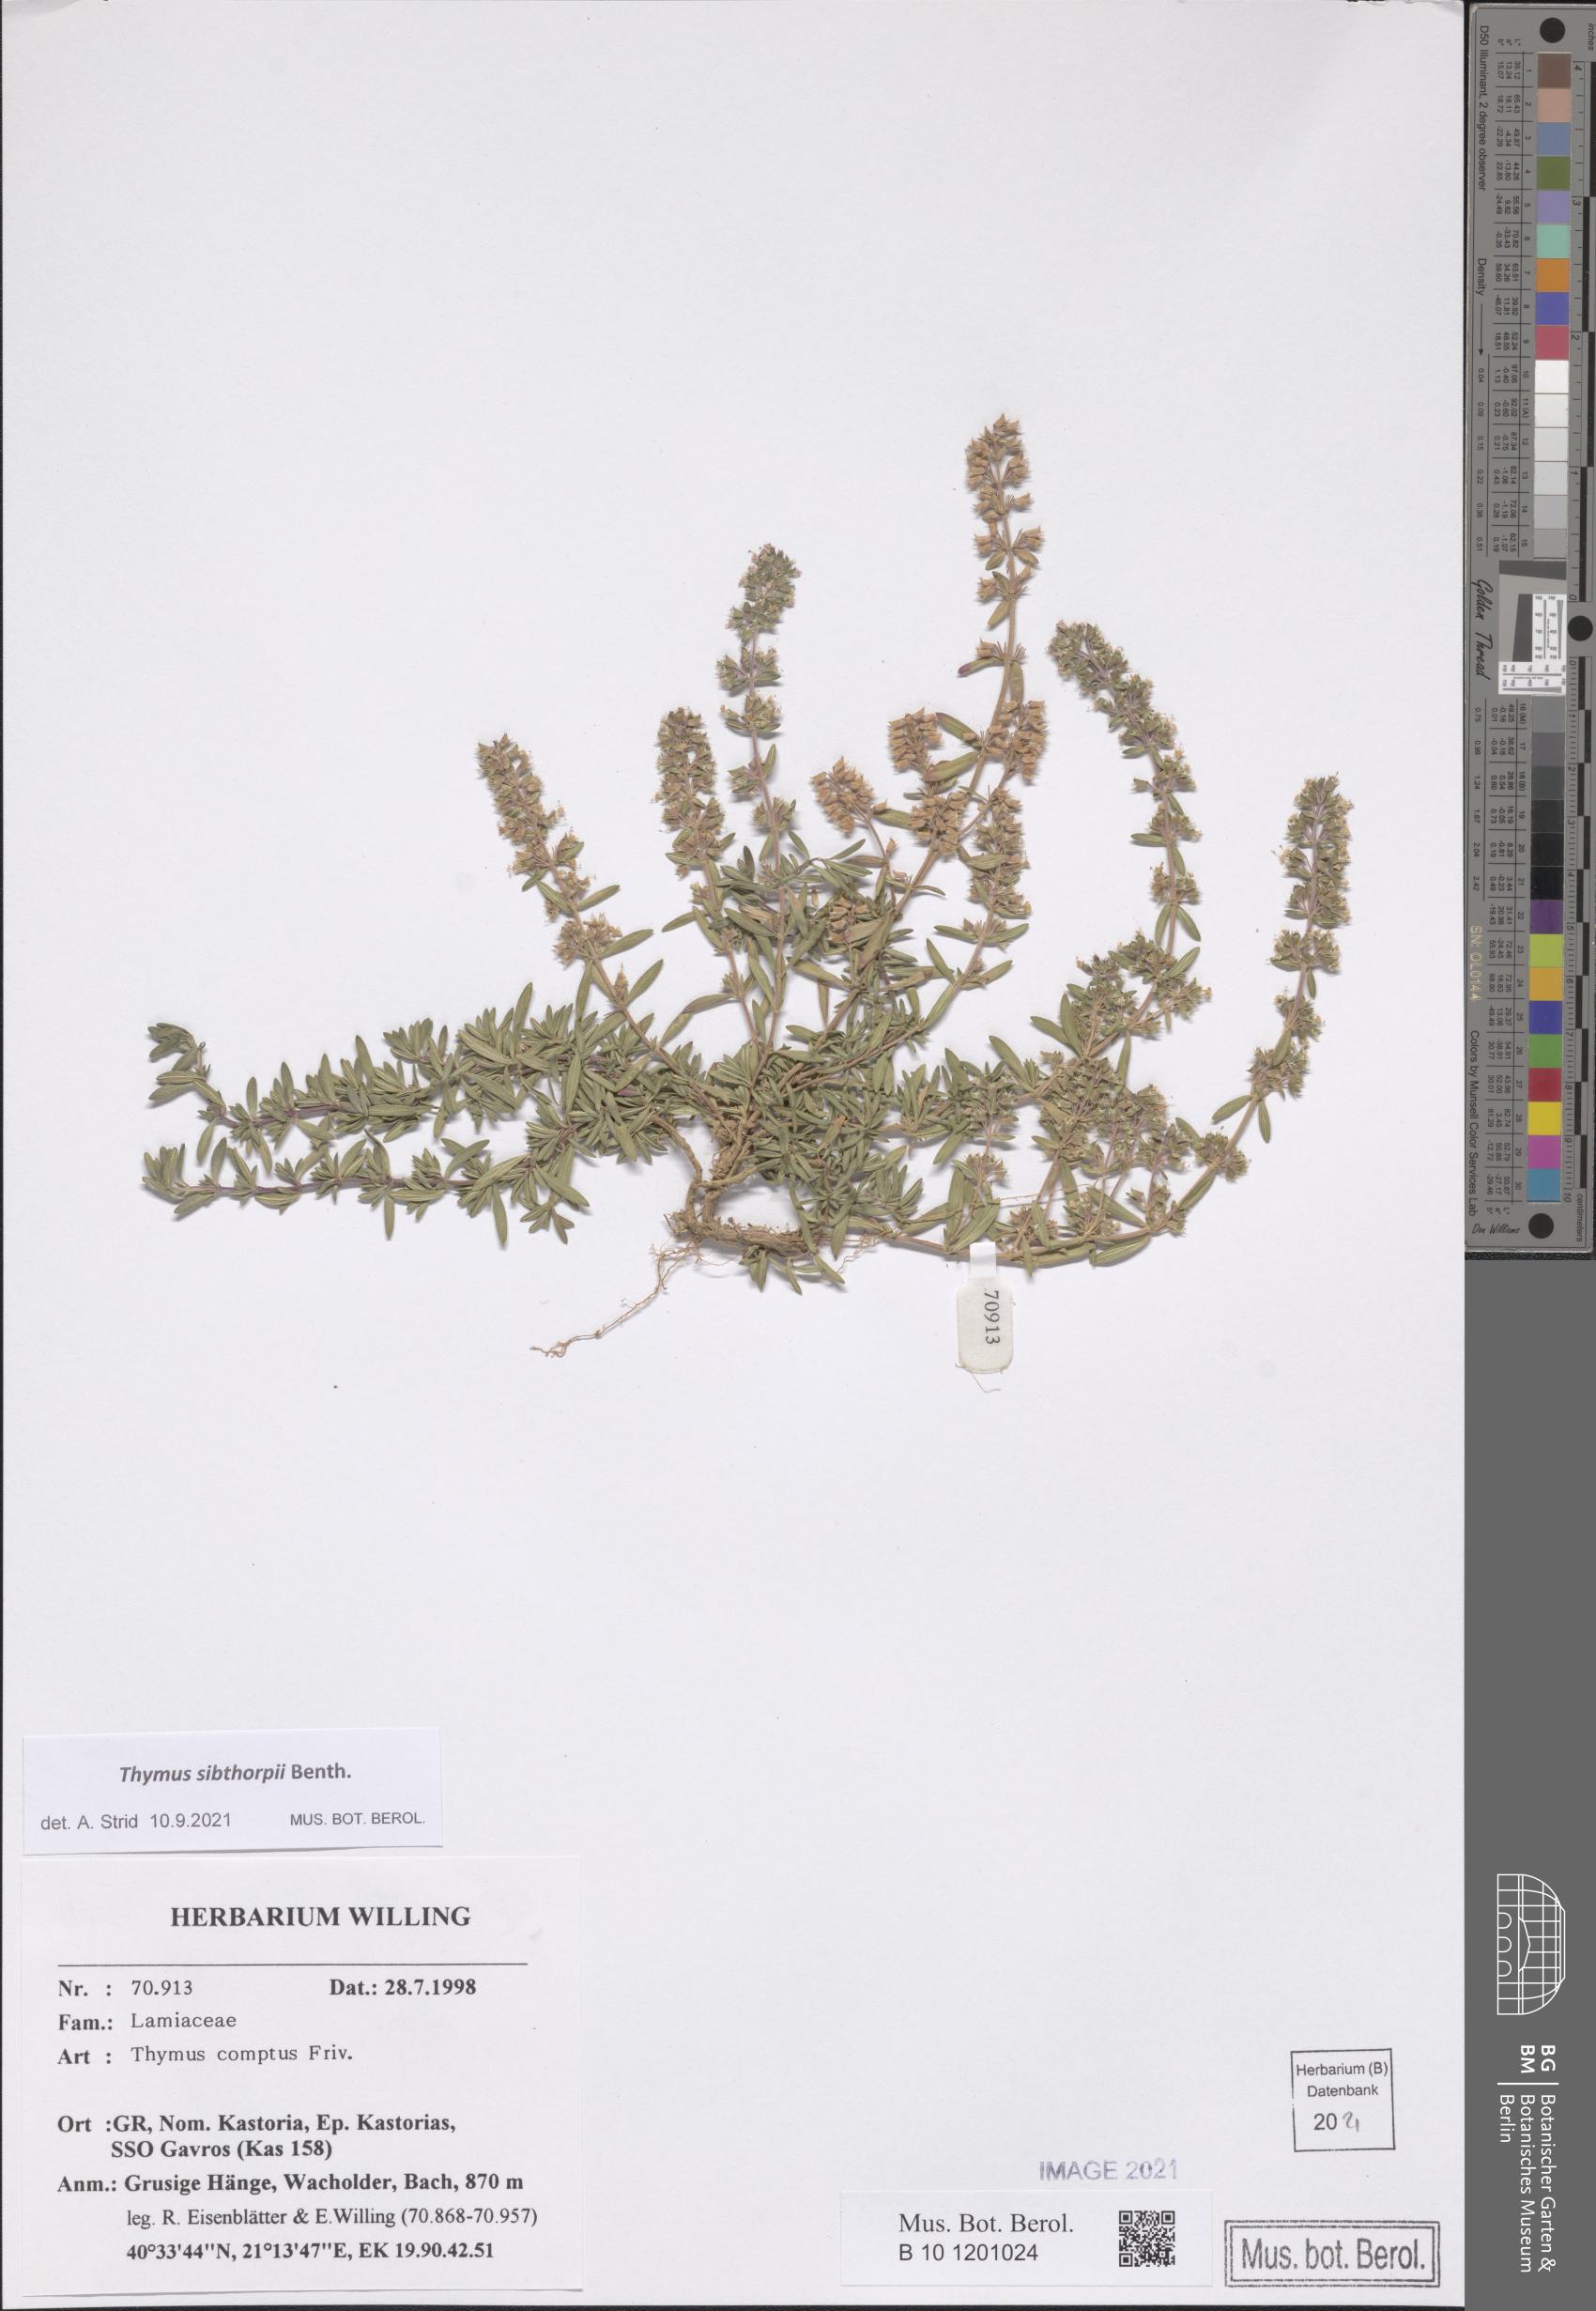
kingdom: Plantae
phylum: Tracheophyta
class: Magnoliopsida
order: Lamiales
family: Lamiaceae
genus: Thymus
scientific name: Thymus sibthorpii
